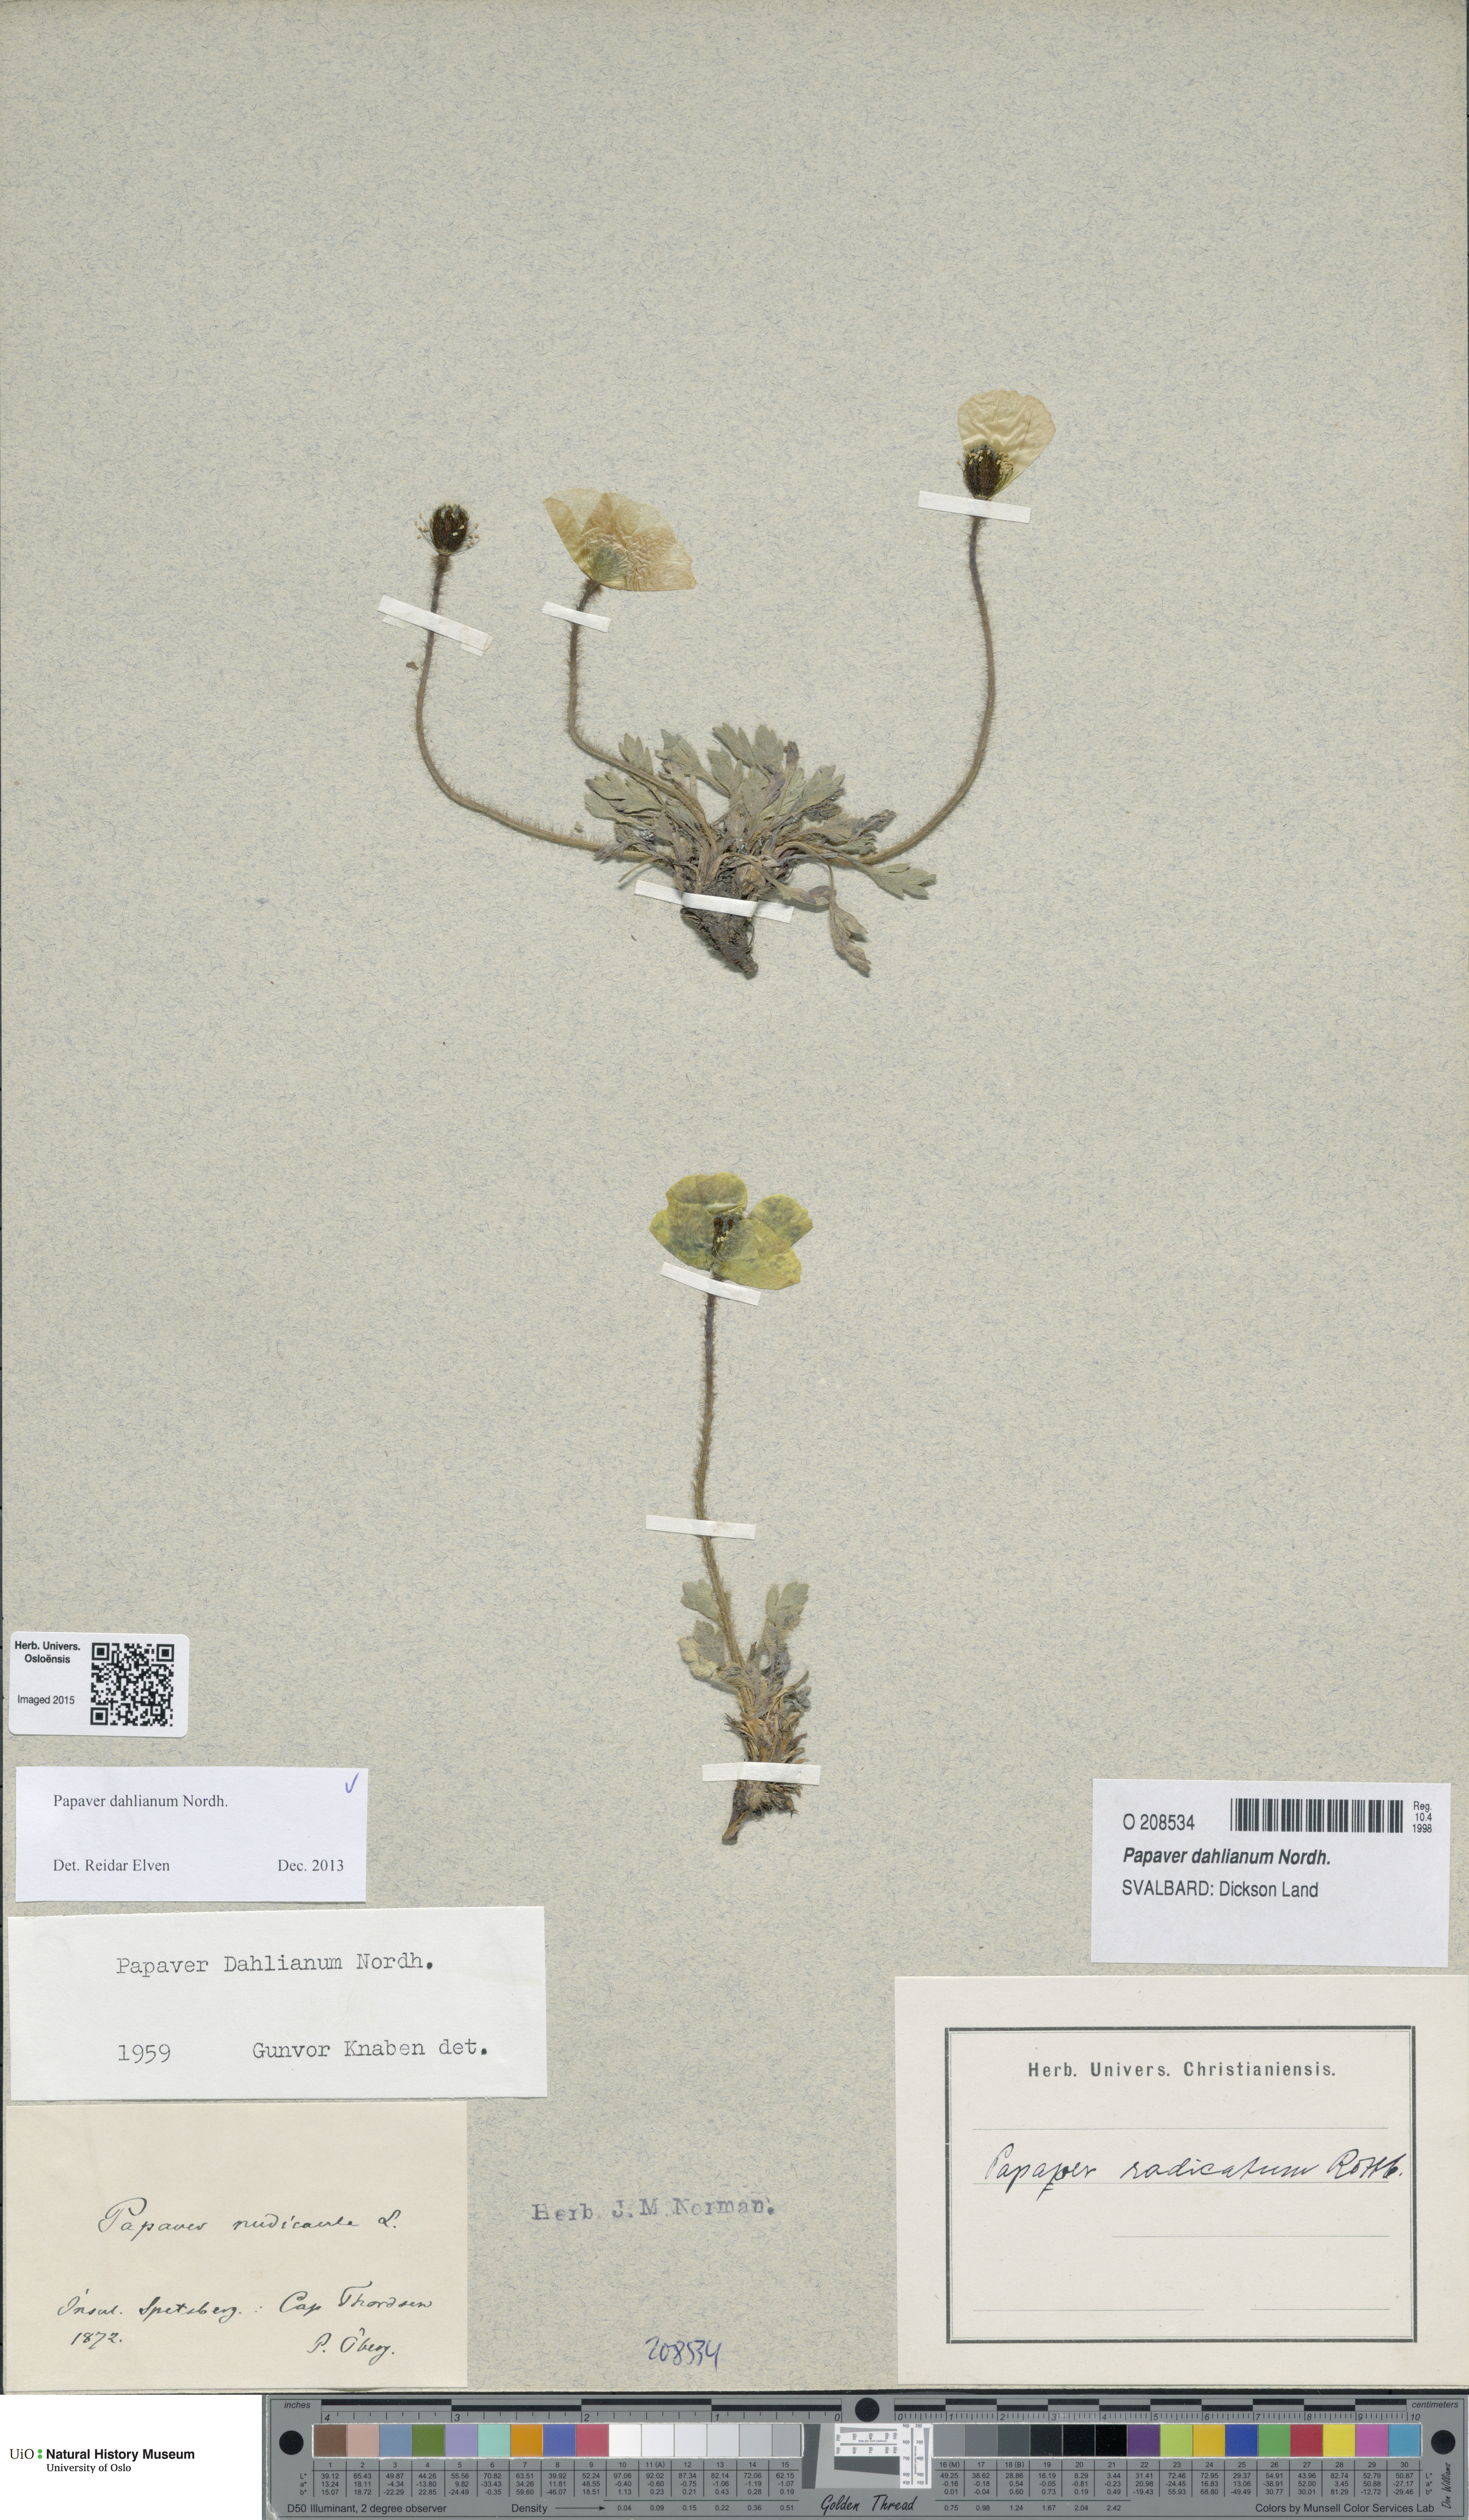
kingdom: Plantae
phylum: Tracheophyta
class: Magnoliopsida
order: Ranunculales
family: Papaveraceae
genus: Papaver
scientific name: Papaver radicatum
